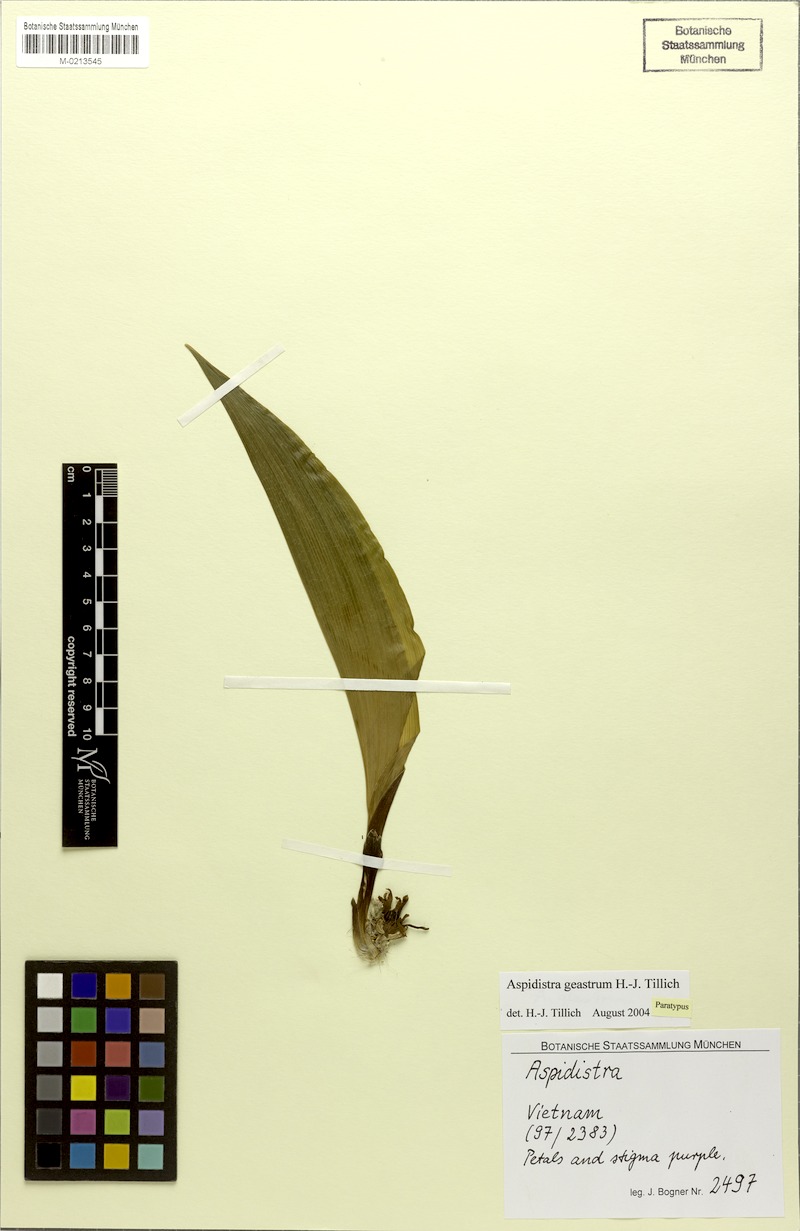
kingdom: Plantae
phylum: Tracheophyta
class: Liliopsida
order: Asparagales
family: Asparagaceae
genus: Aspidistra
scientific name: Aspidistra geastrum
